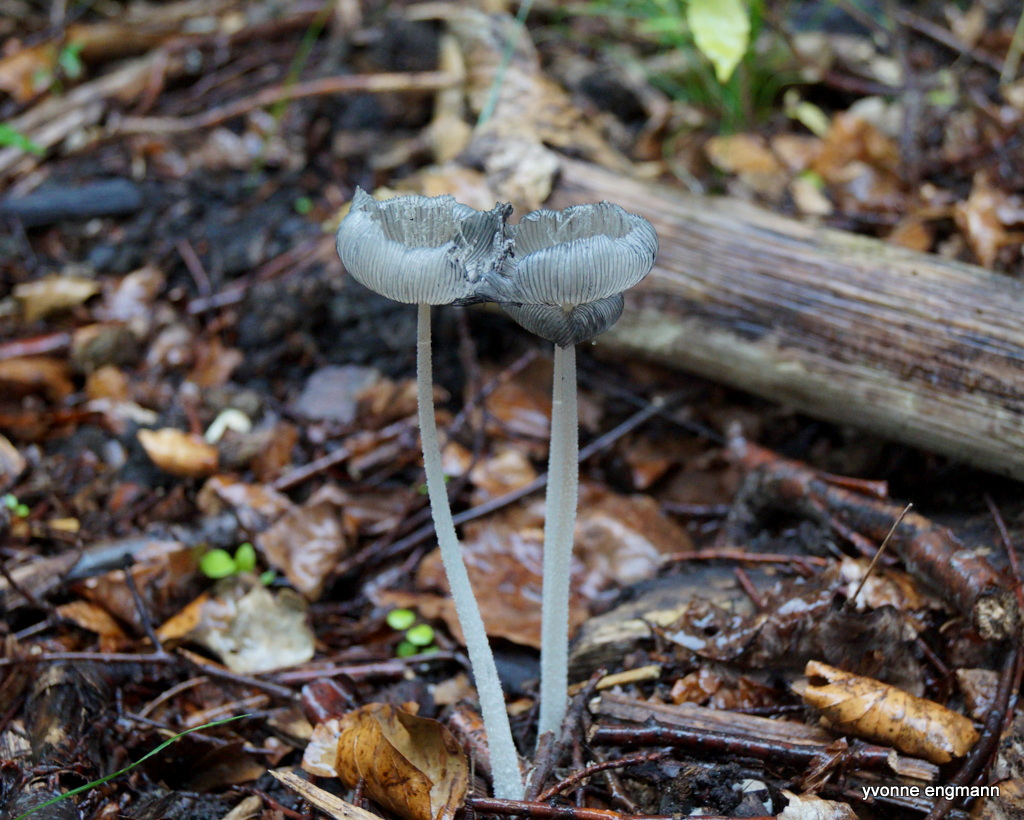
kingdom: Fungi
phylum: Basidiomycota
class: Agaricomycetes
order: Agaricales
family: Psathyrellaceae
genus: Coprinopsis
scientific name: Coprinopsis lagopus
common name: dunstokket blækhat
